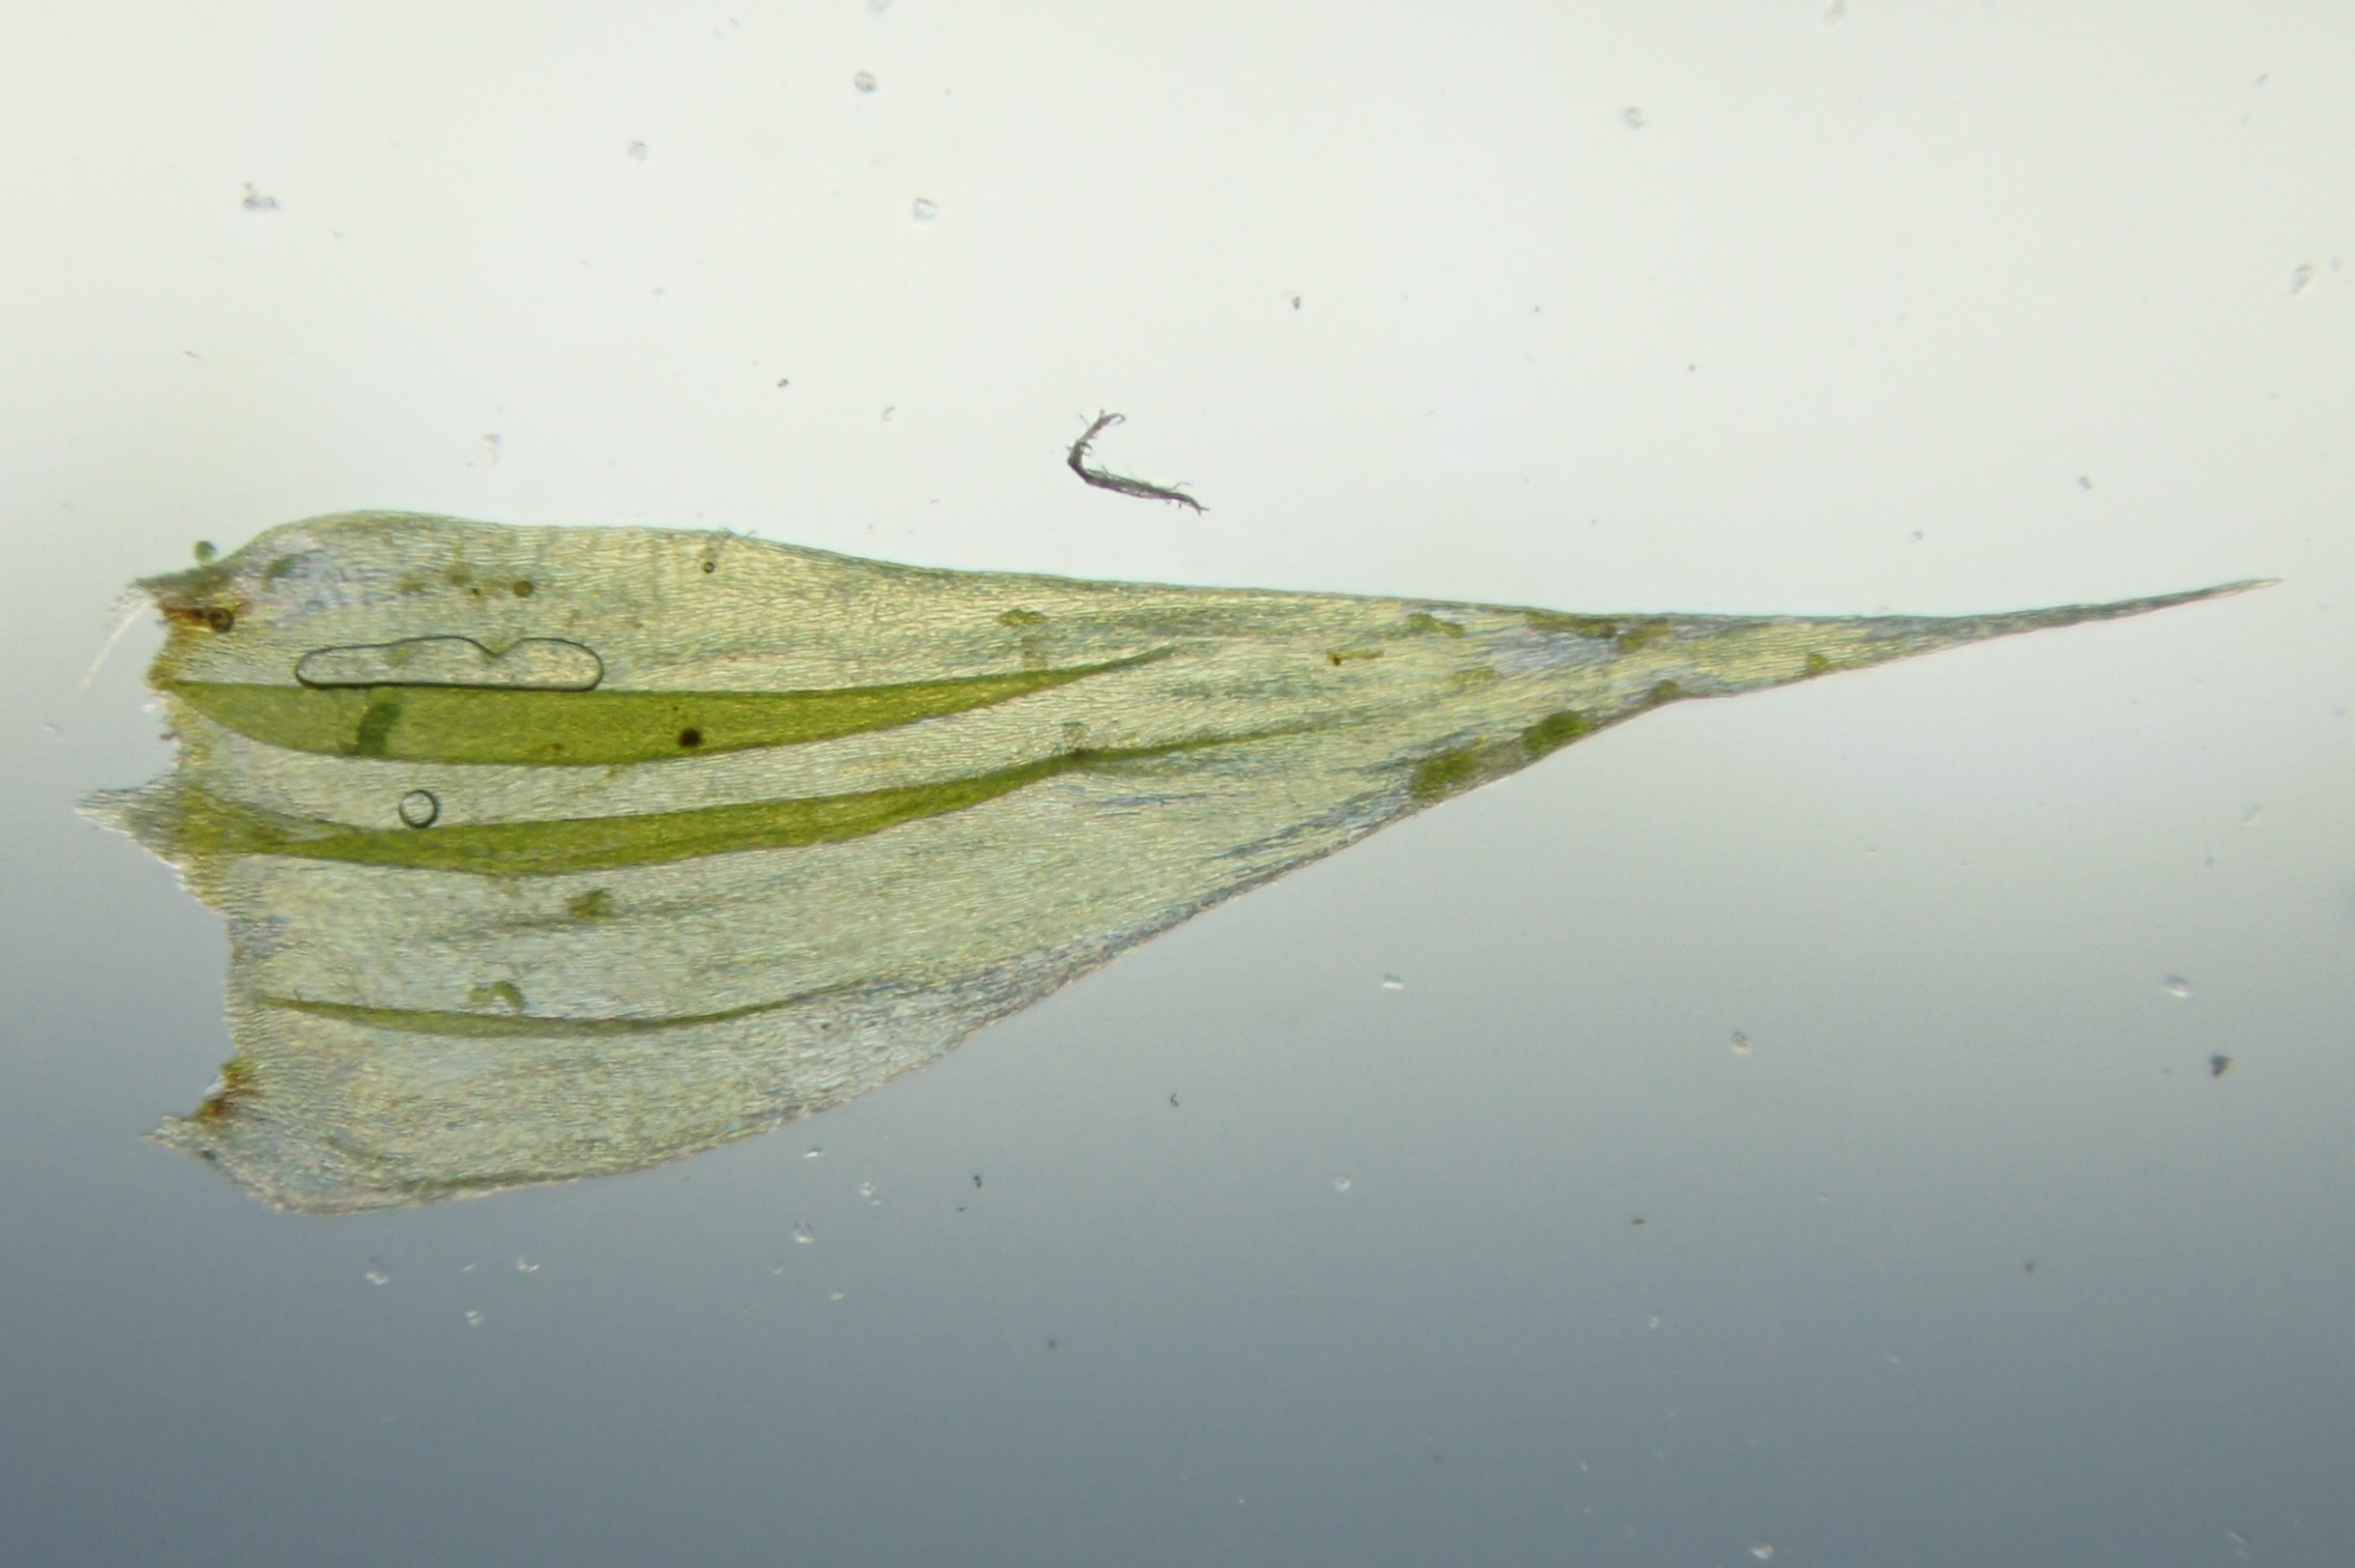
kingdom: Plantae
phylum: Bryophyta
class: Bryopsida
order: Hypnales
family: Brachytheciaceae
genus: Homalothecium
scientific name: Homalothecium lutescens
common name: Gul krumkapsel
